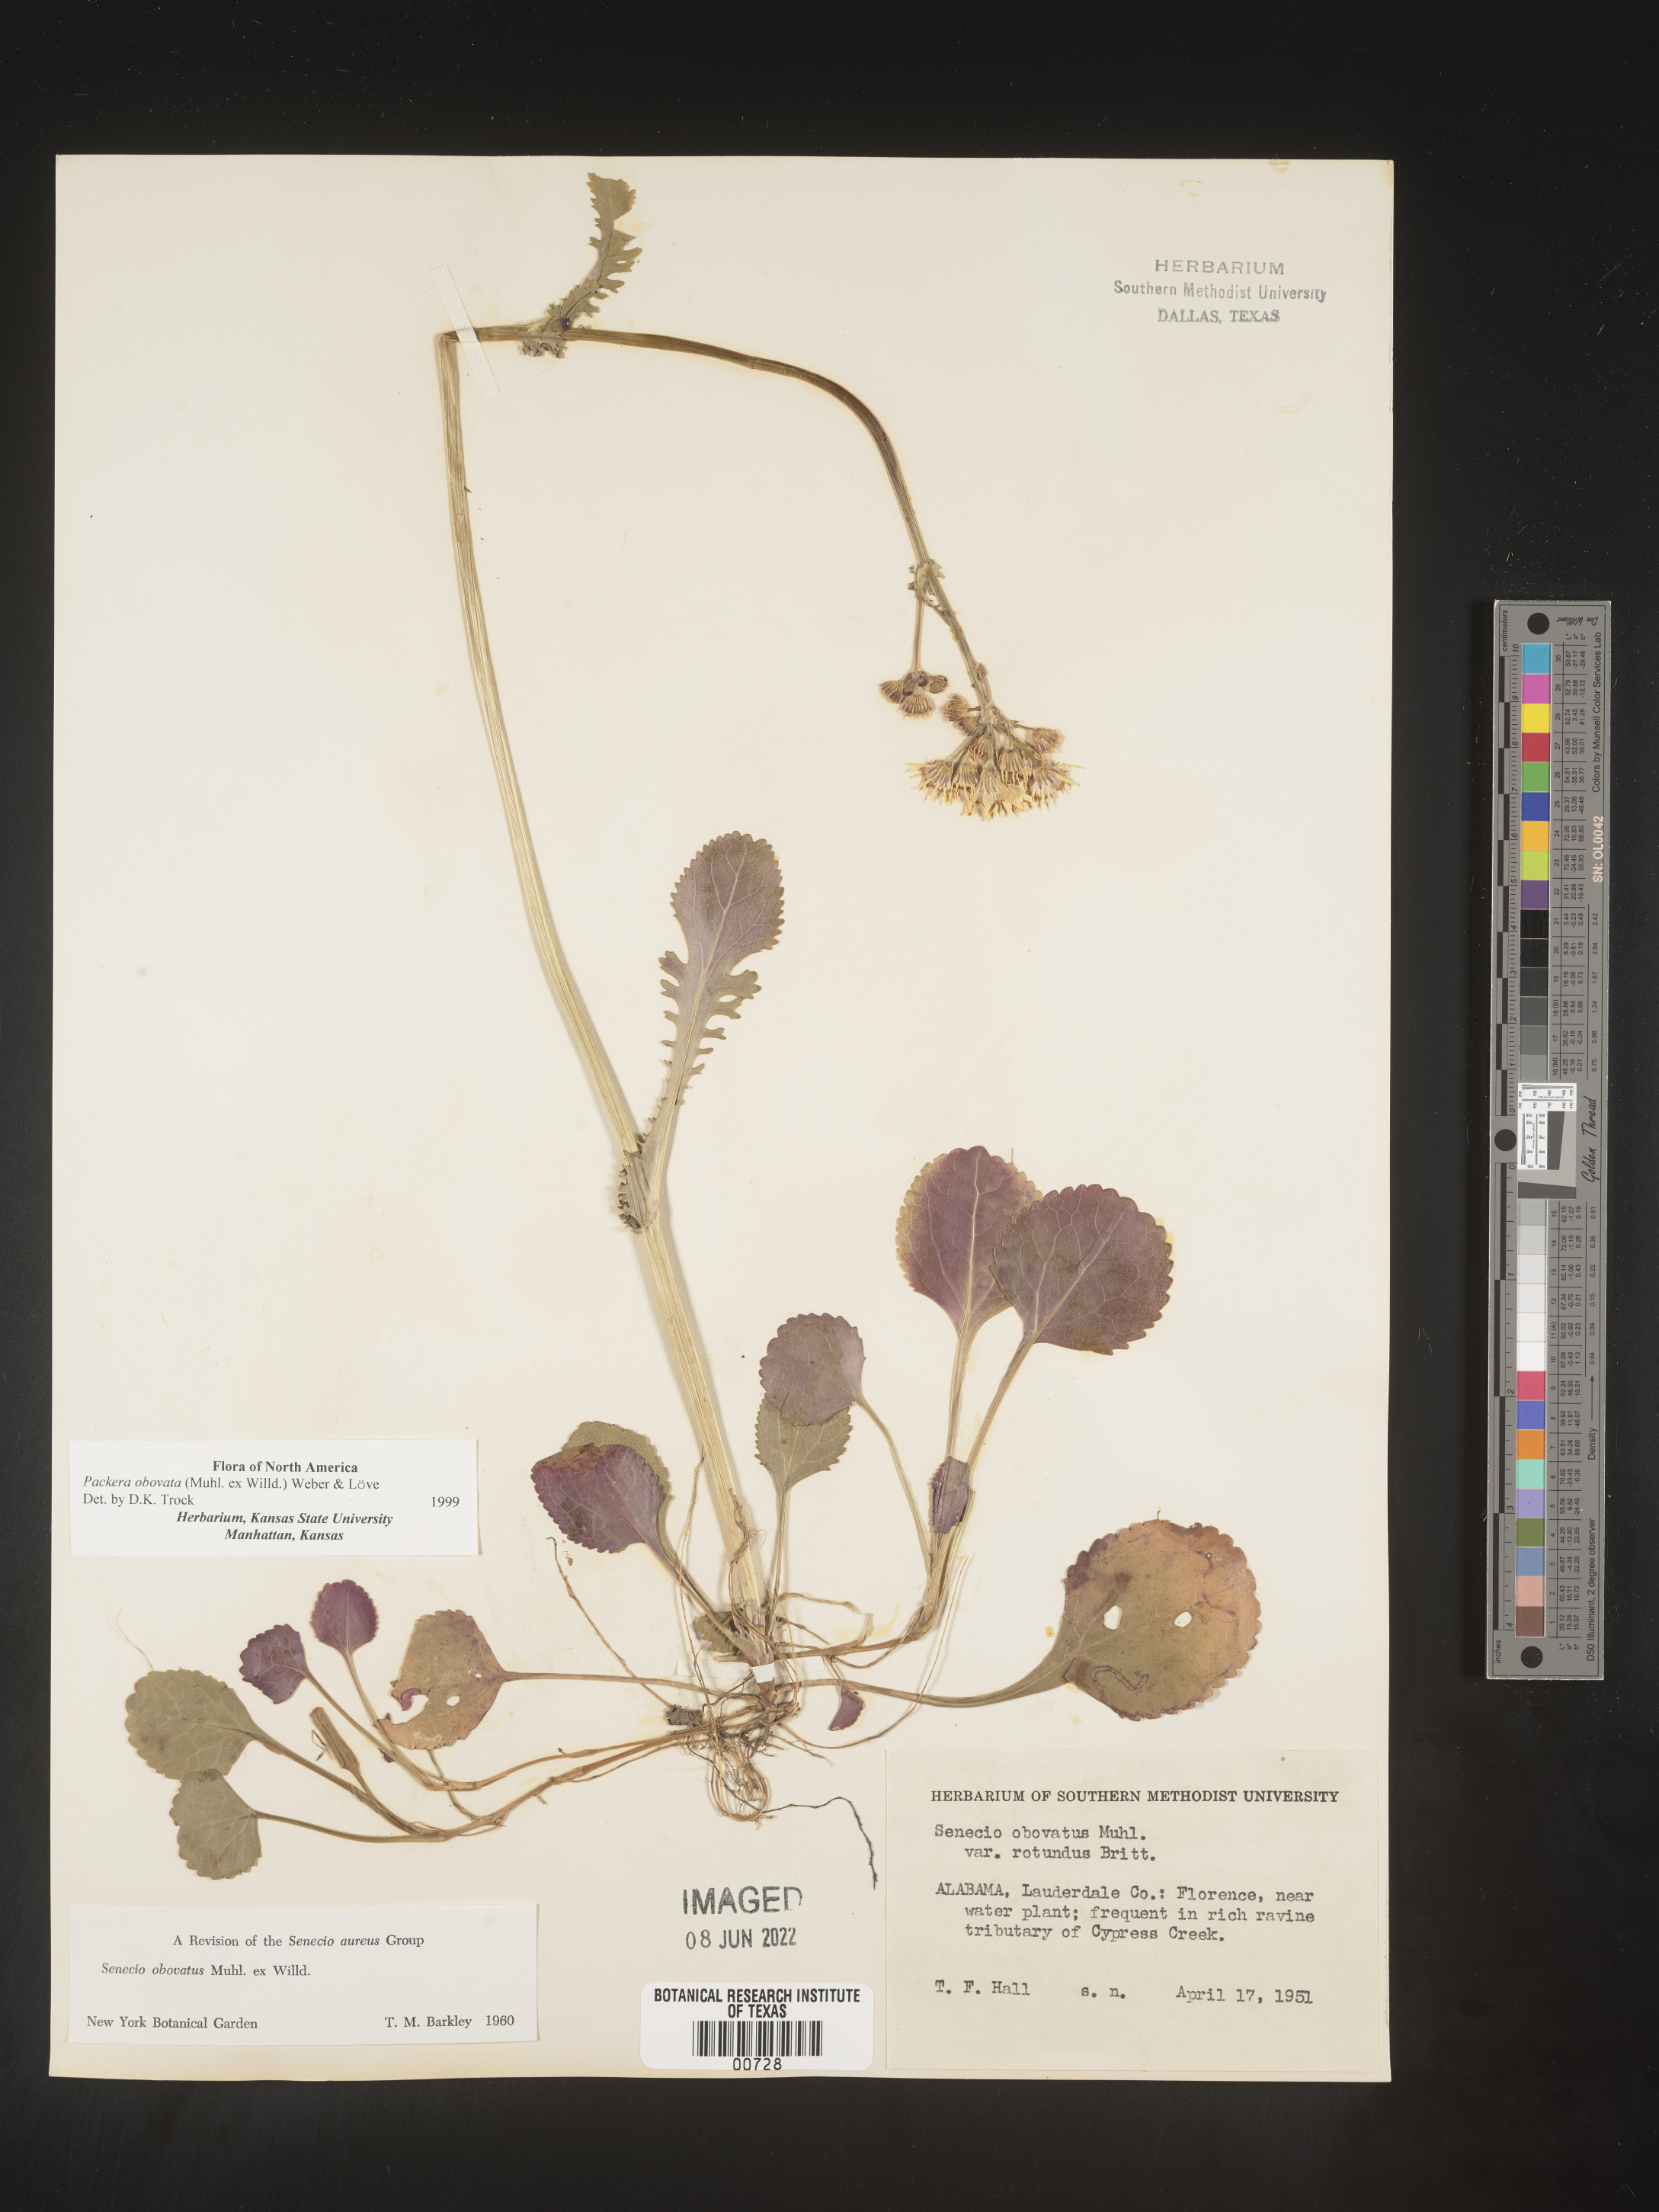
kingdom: Plantae
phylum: Tracheophyta
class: Magnoliopsida
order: Asterales
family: Asteraceae
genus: Packera
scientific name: Packera obovata
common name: Round-leaf ragwort
